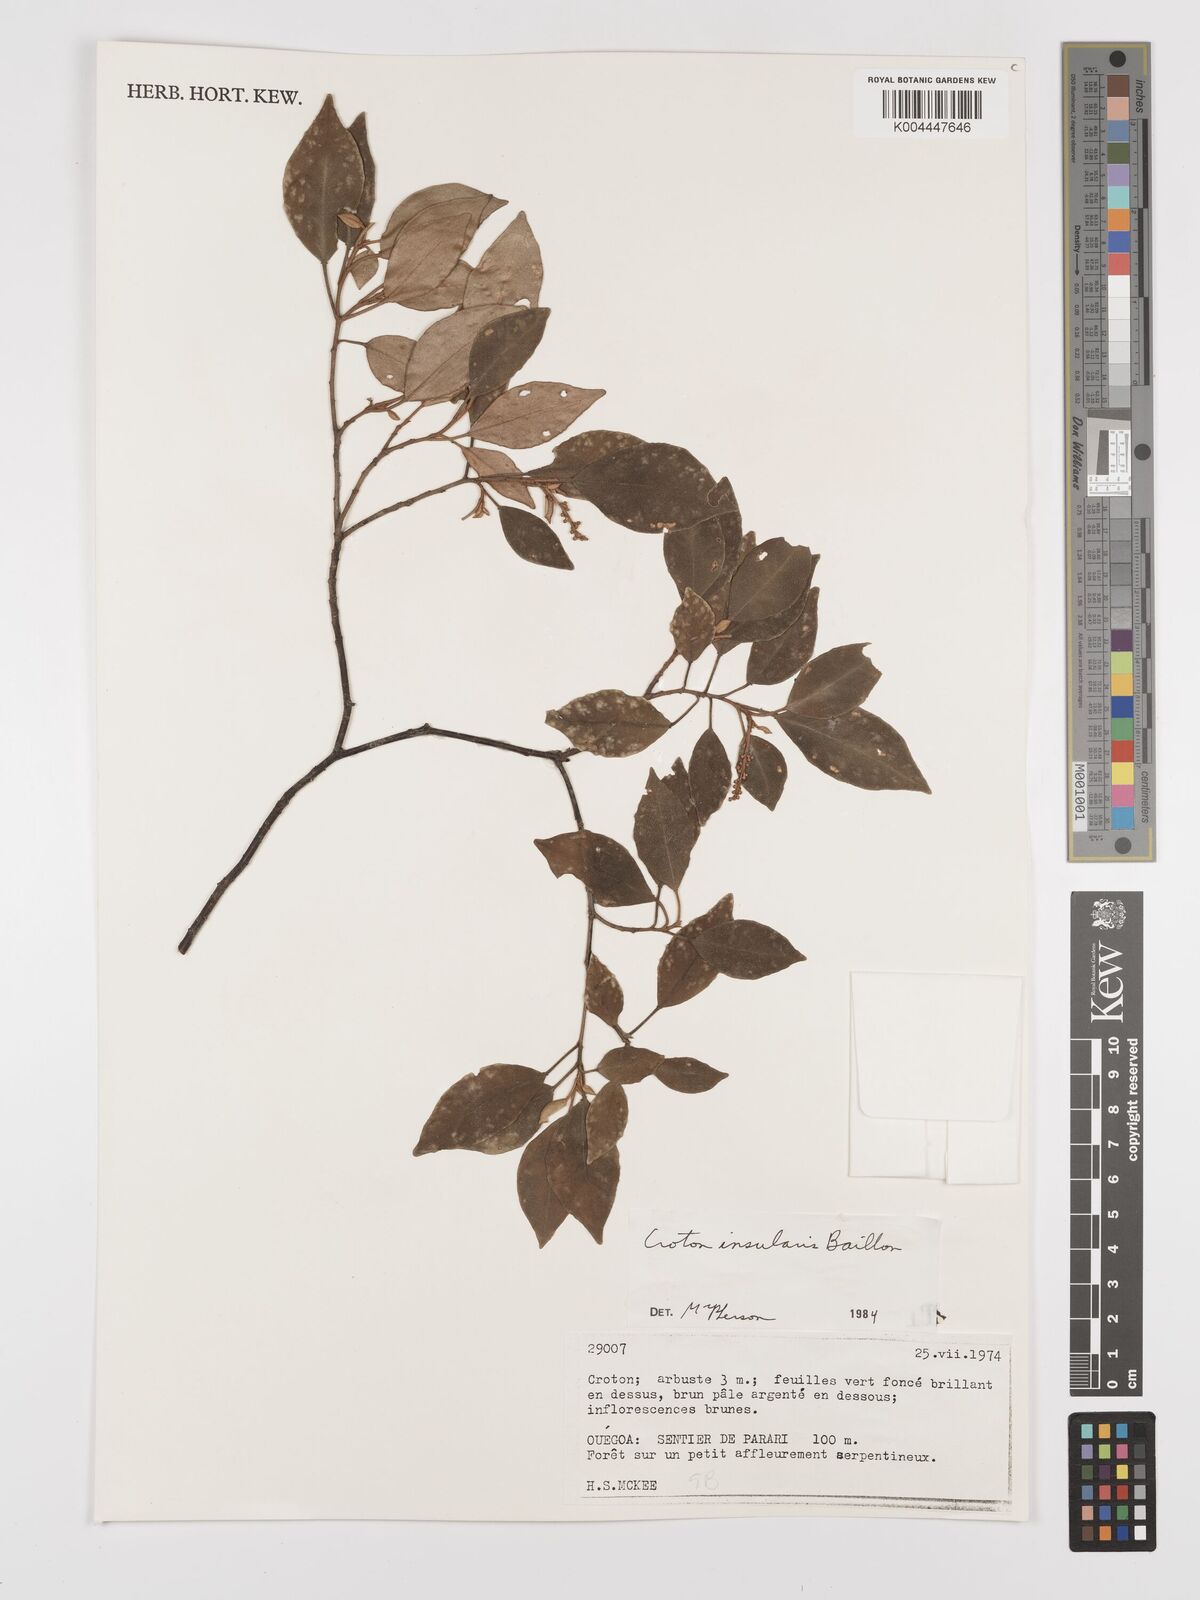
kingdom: Plantae
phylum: Tracheophyta
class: Magnoliopsida
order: Malpighiales
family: Euphorbiaceae
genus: Croton
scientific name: Croton insularis
